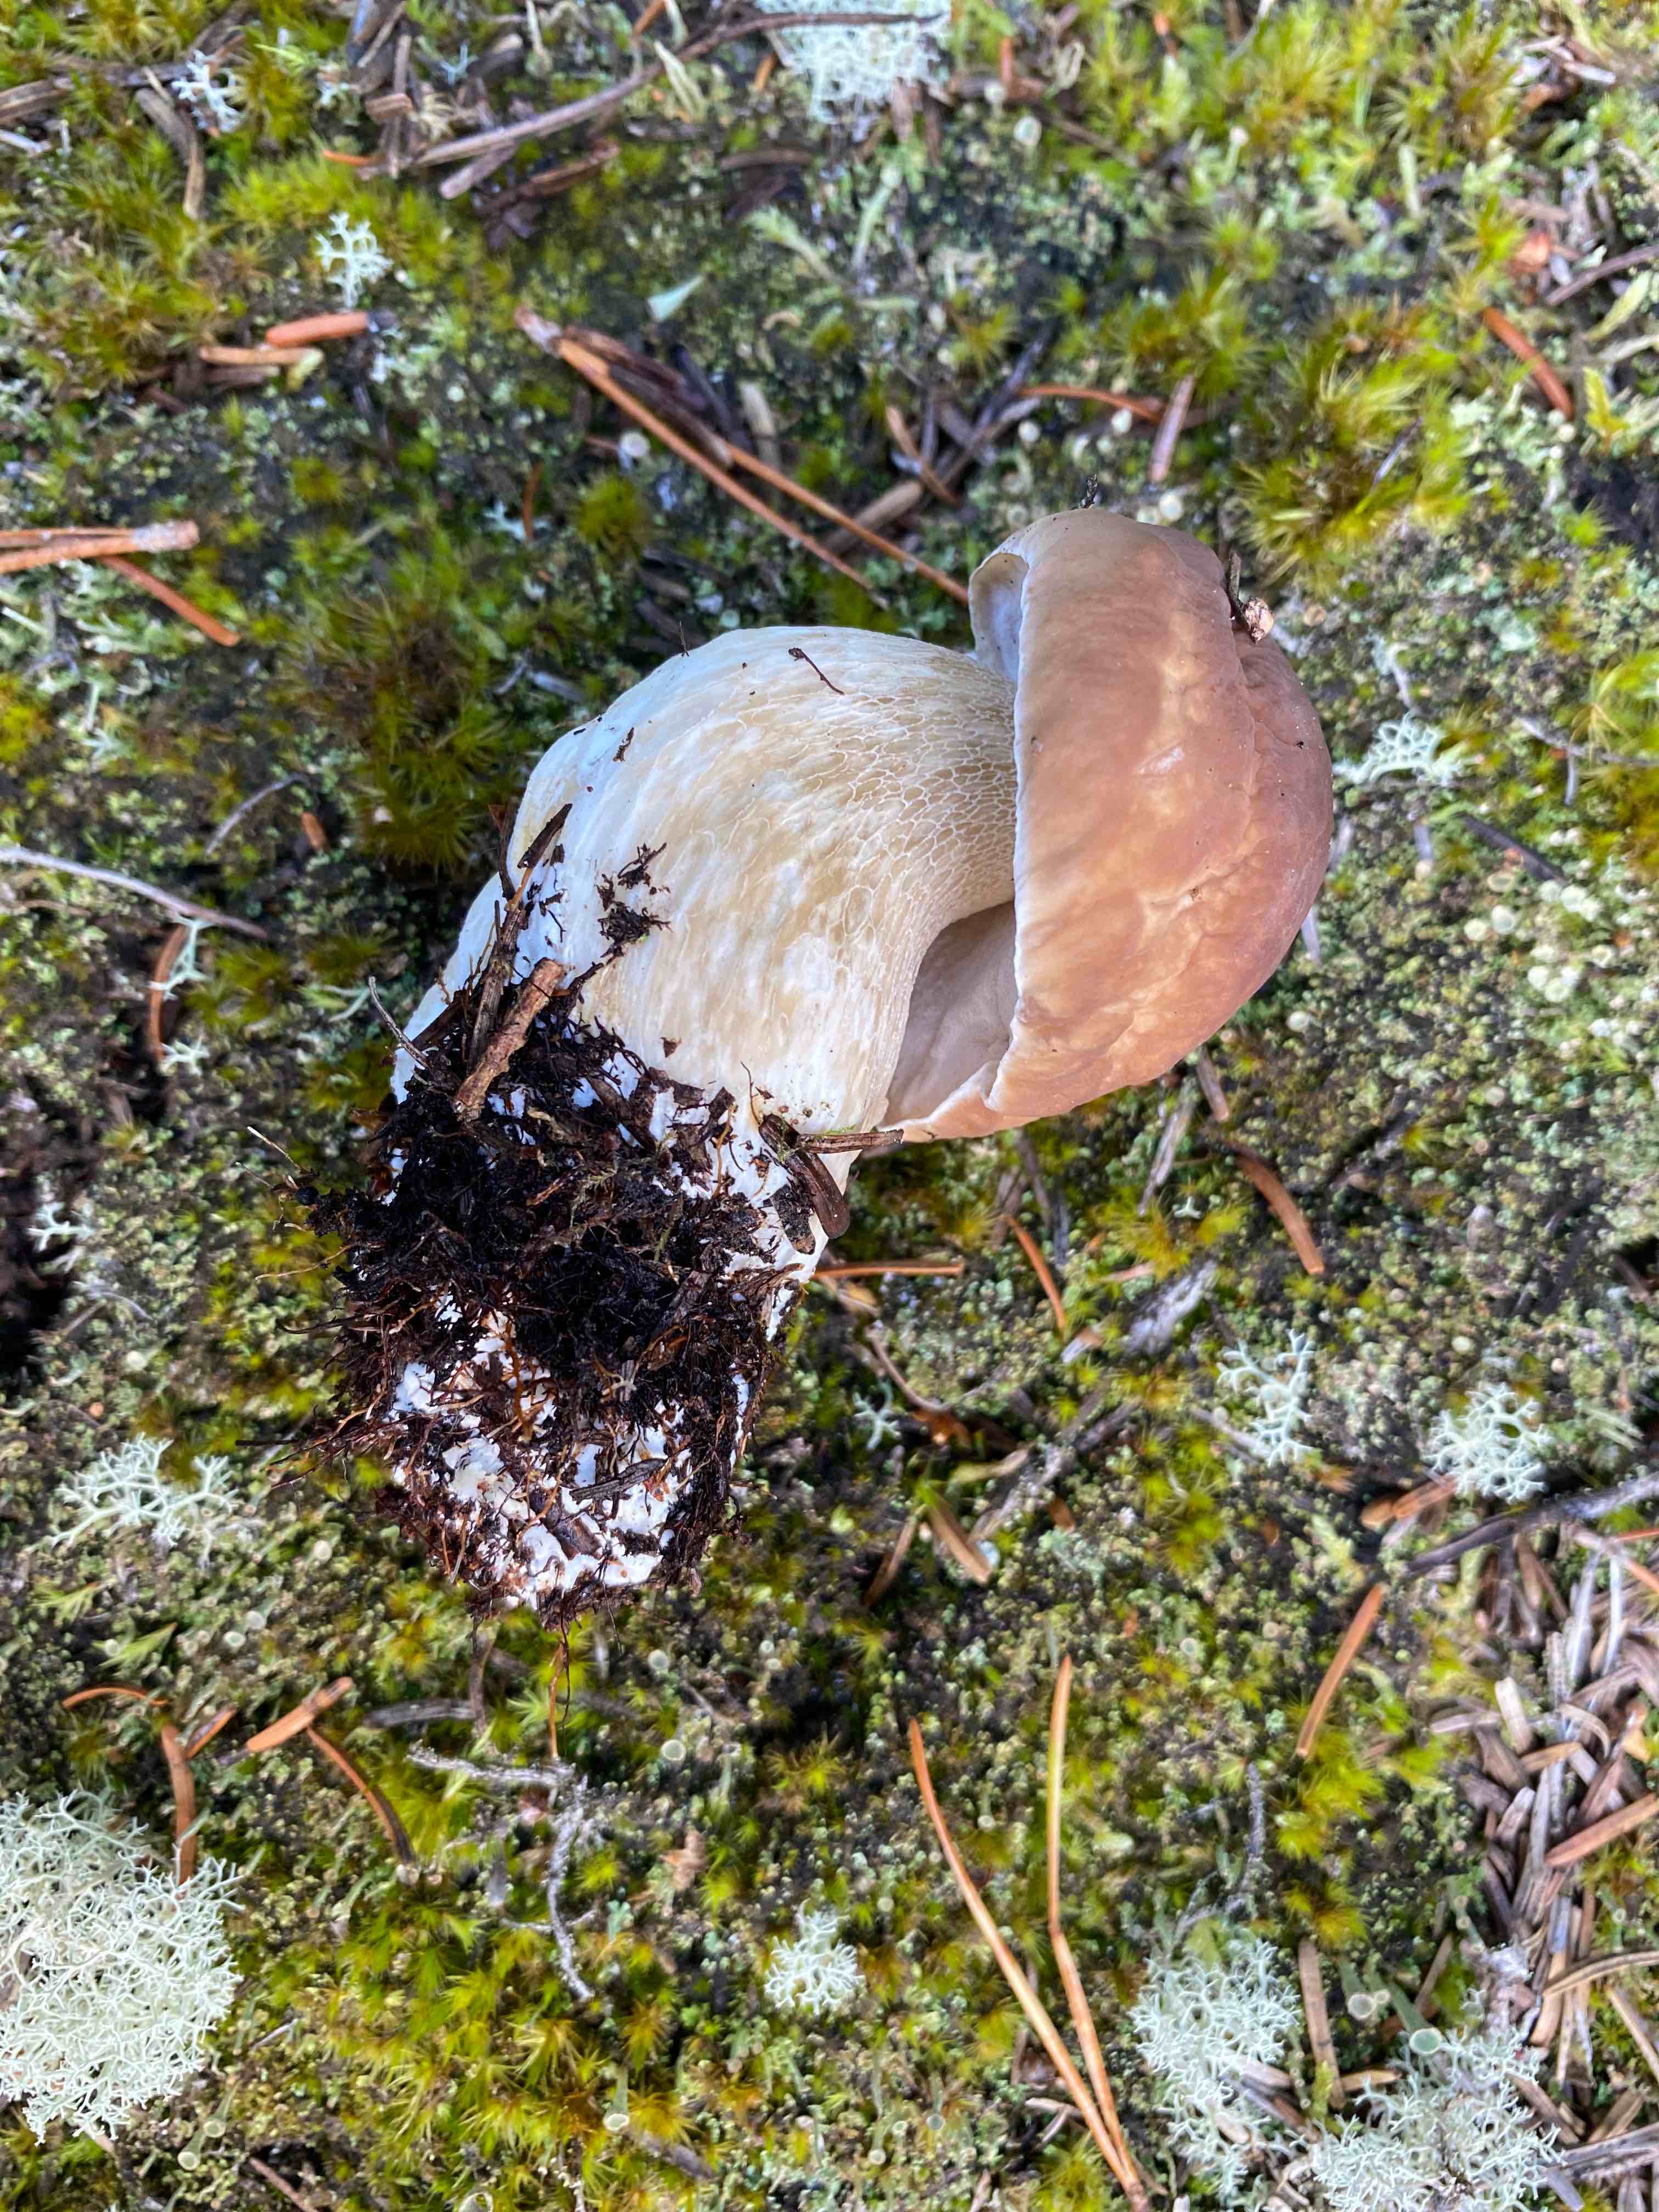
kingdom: Fungi
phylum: Basidiomycota
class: Agaricomycetes
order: Boletales
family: Boletaceae
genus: Boletus
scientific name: Boletus edulis
